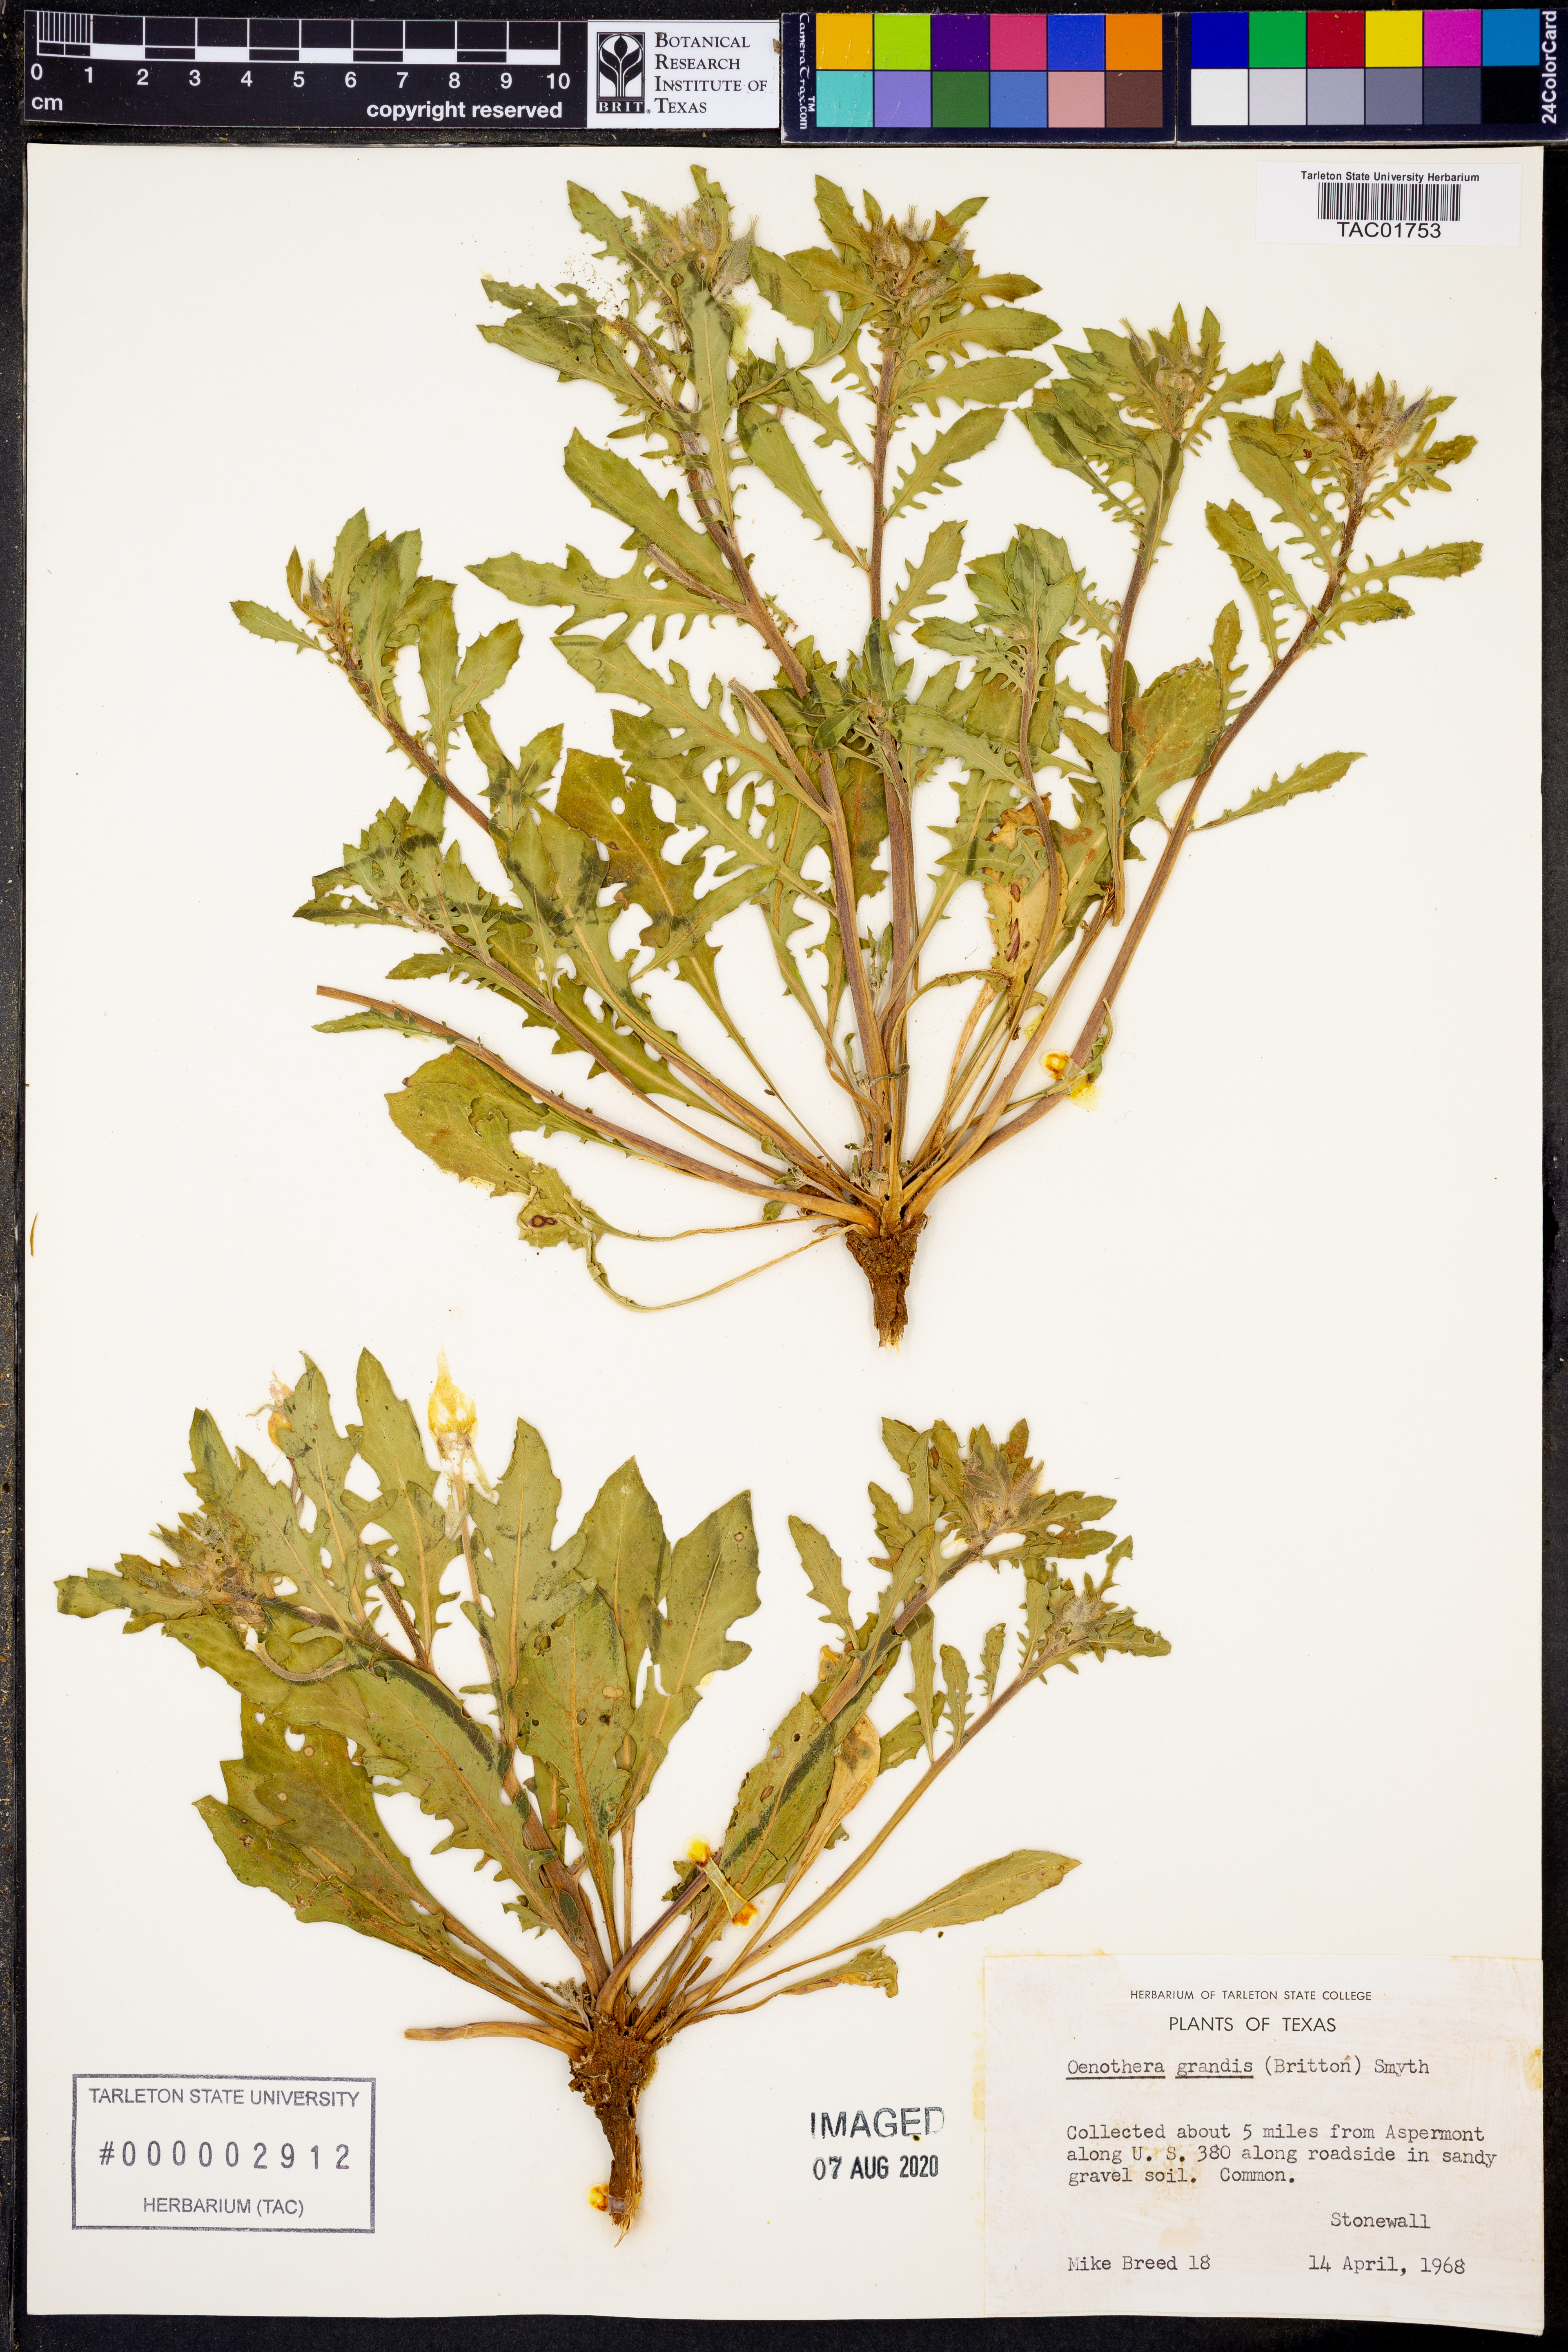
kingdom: Plantae
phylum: Tracheophyta
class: Magnoliopsida
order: Myrtales
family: Onagraceae
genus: Oenothera
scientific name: Oenothera grandis
